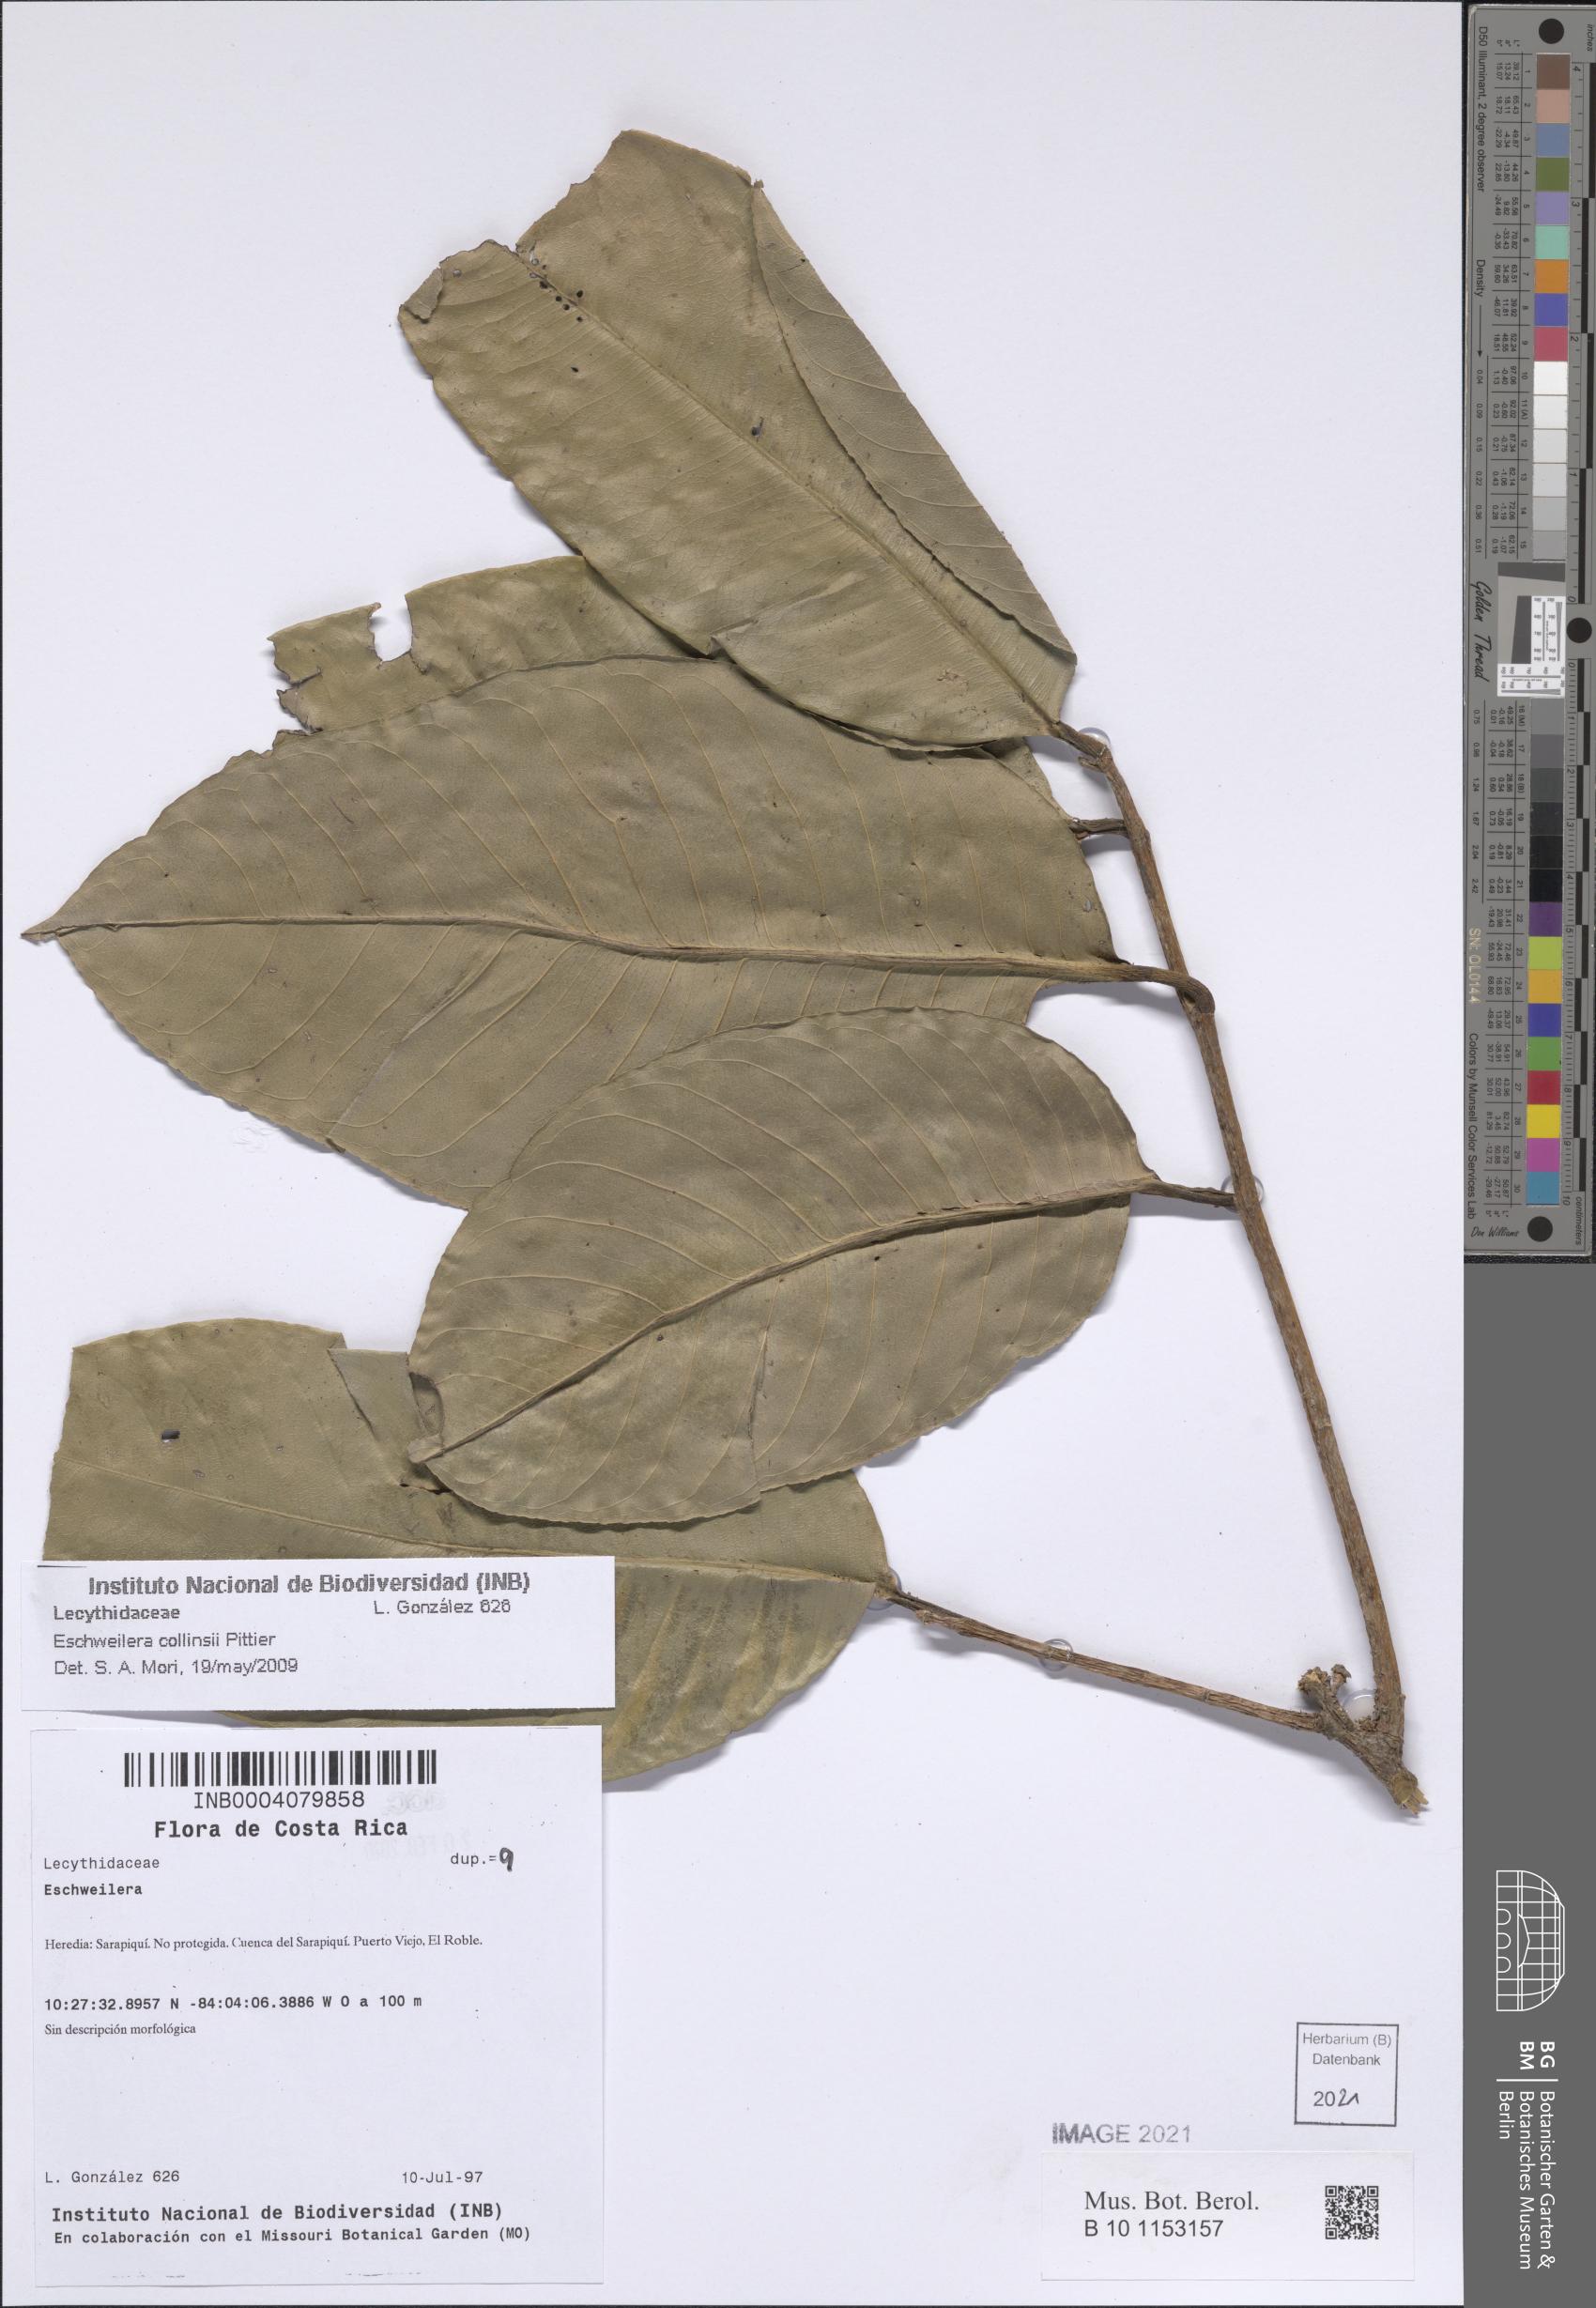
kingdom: Plantae
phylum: Tracheophyta
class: Magnoliopsida
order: Ericales
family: Lecythidaceae
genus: Eschweilera
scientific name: Eschweilera collinsii
